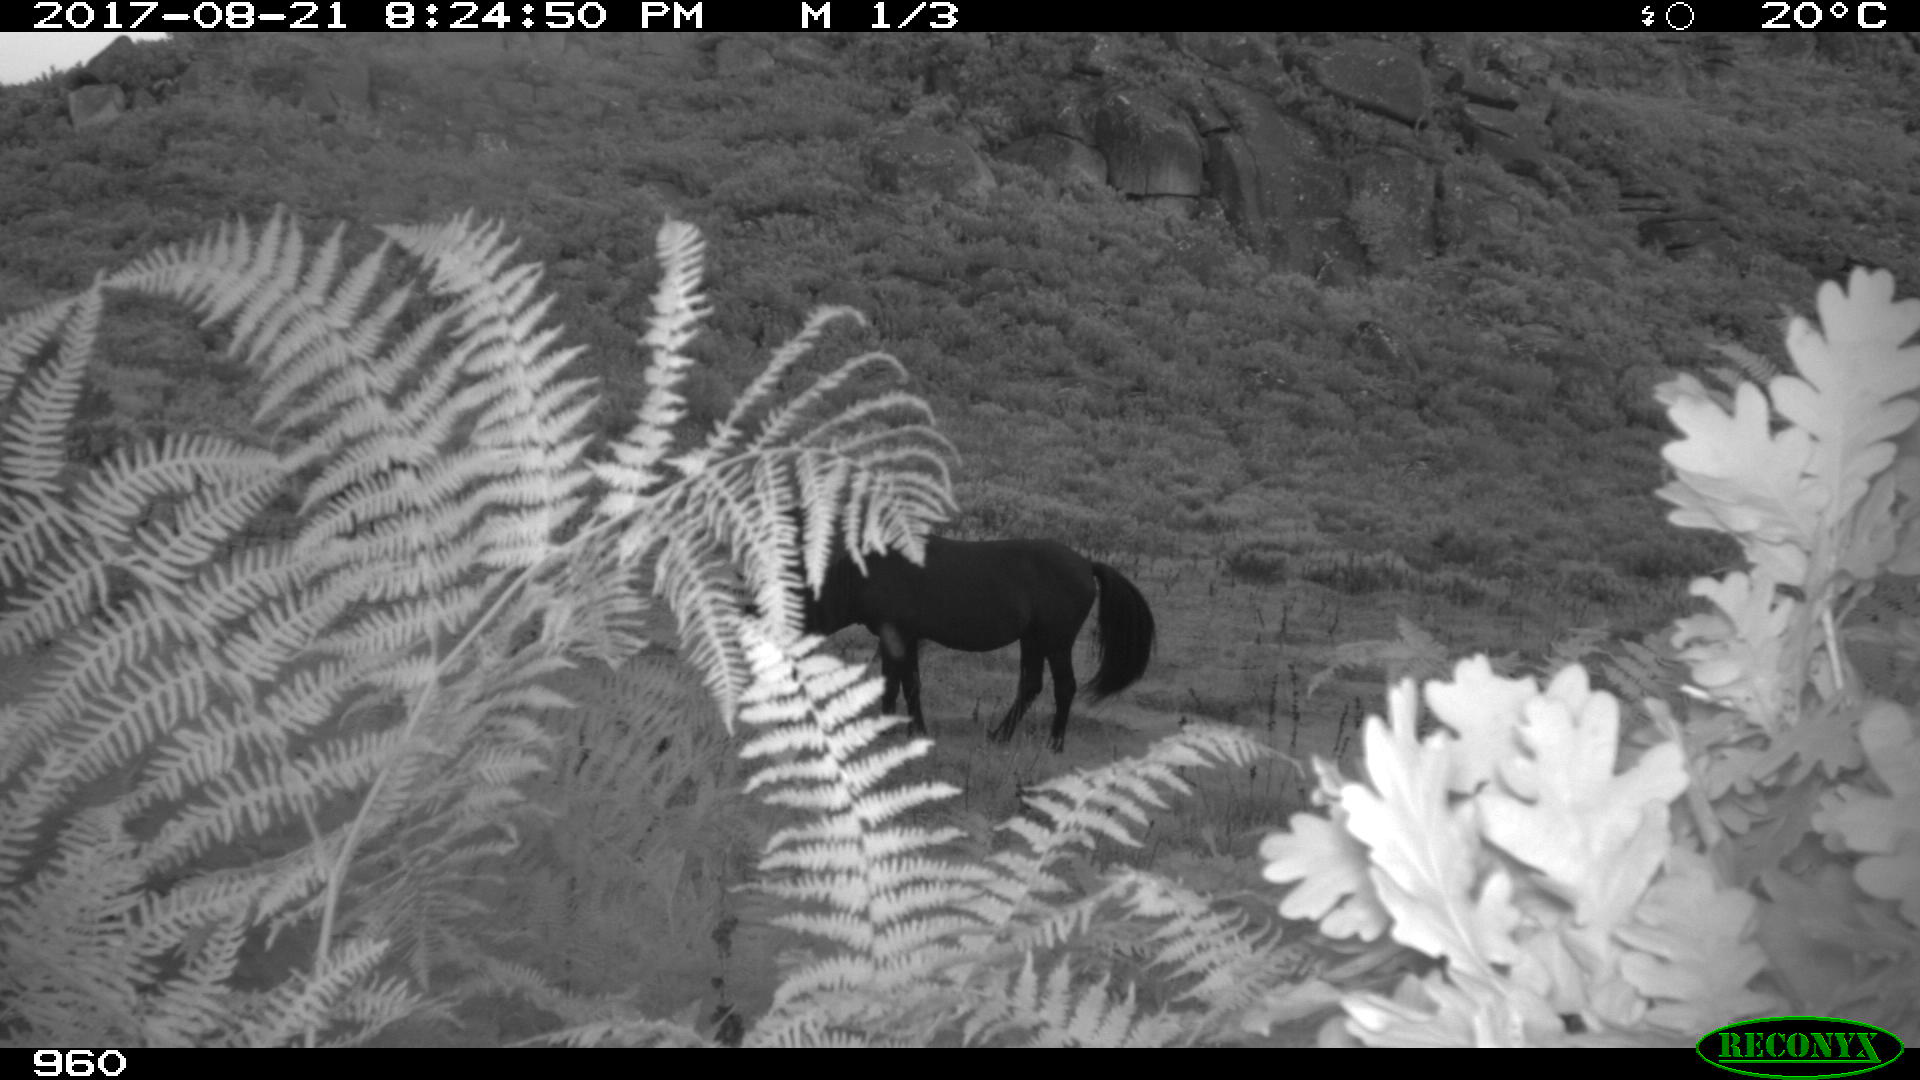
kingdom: Animalia
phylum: Chordata
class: Mammalia
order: Perissodactyla
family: Equidae
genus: Equus
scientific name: Equus caballus
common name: Horse
